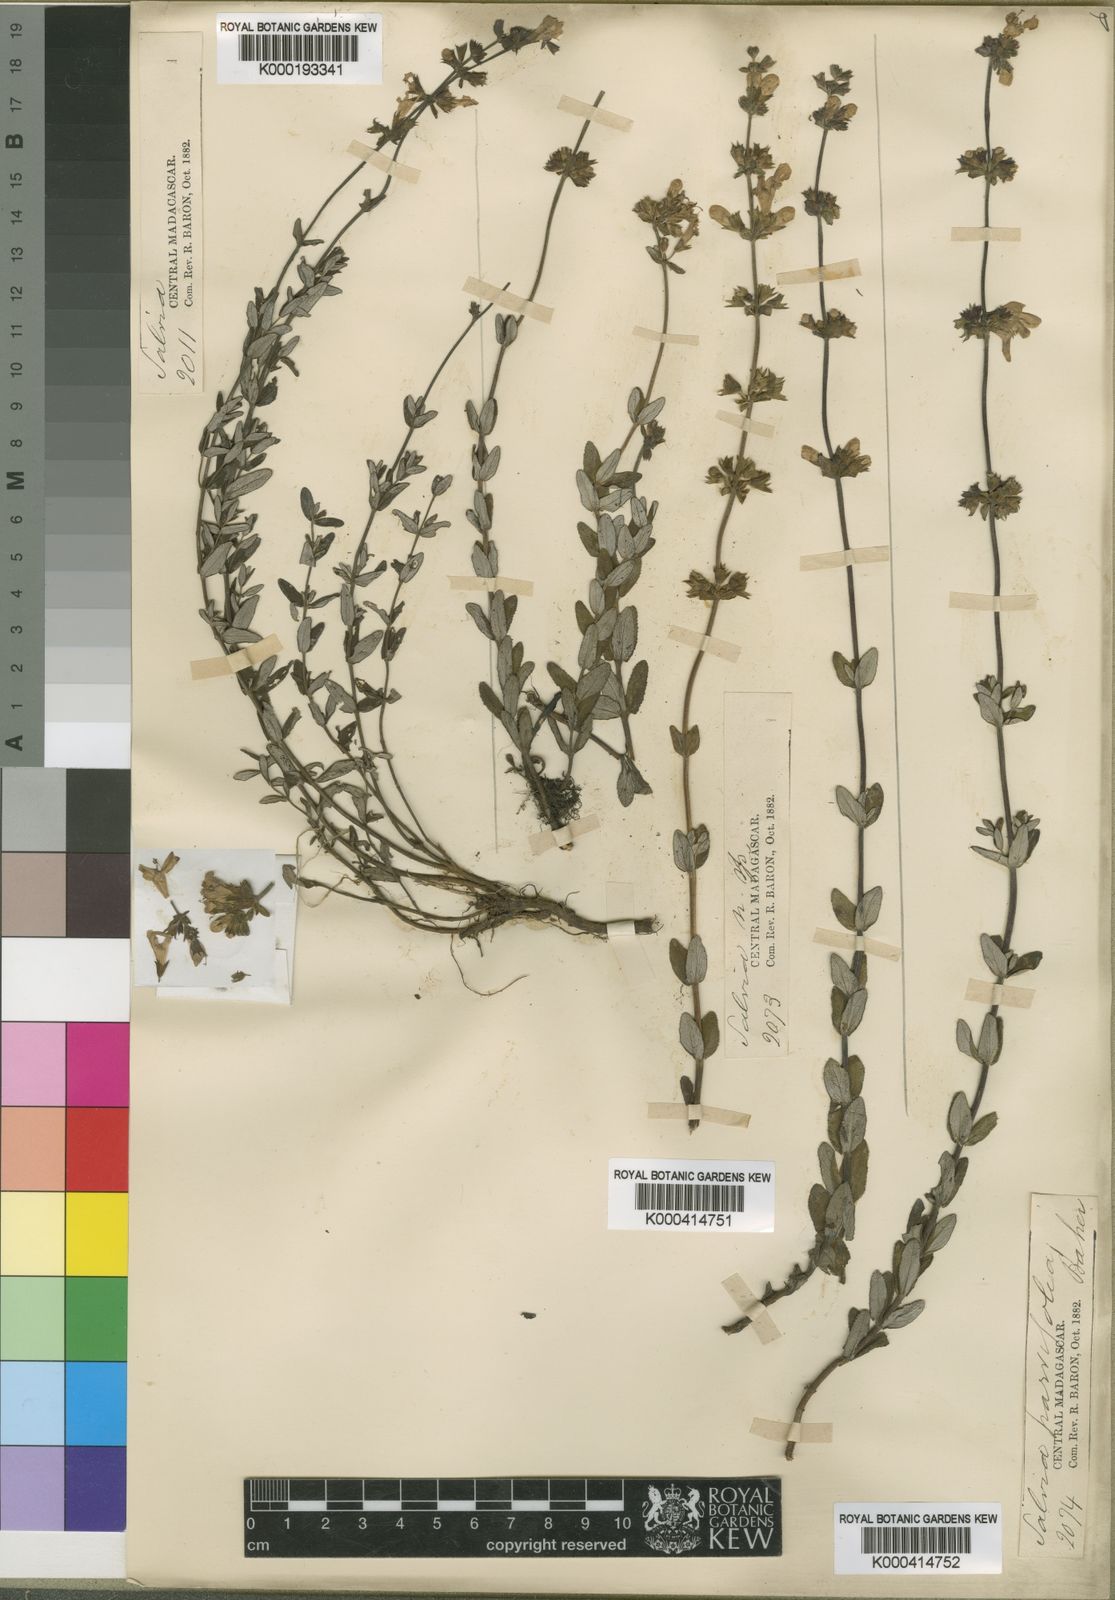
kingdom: Plantae
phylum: Tracheophyta
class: Magnoliopsida
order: Lamiales
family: Lamiaceae
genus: Salvia
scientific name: Salvia parvifolia
